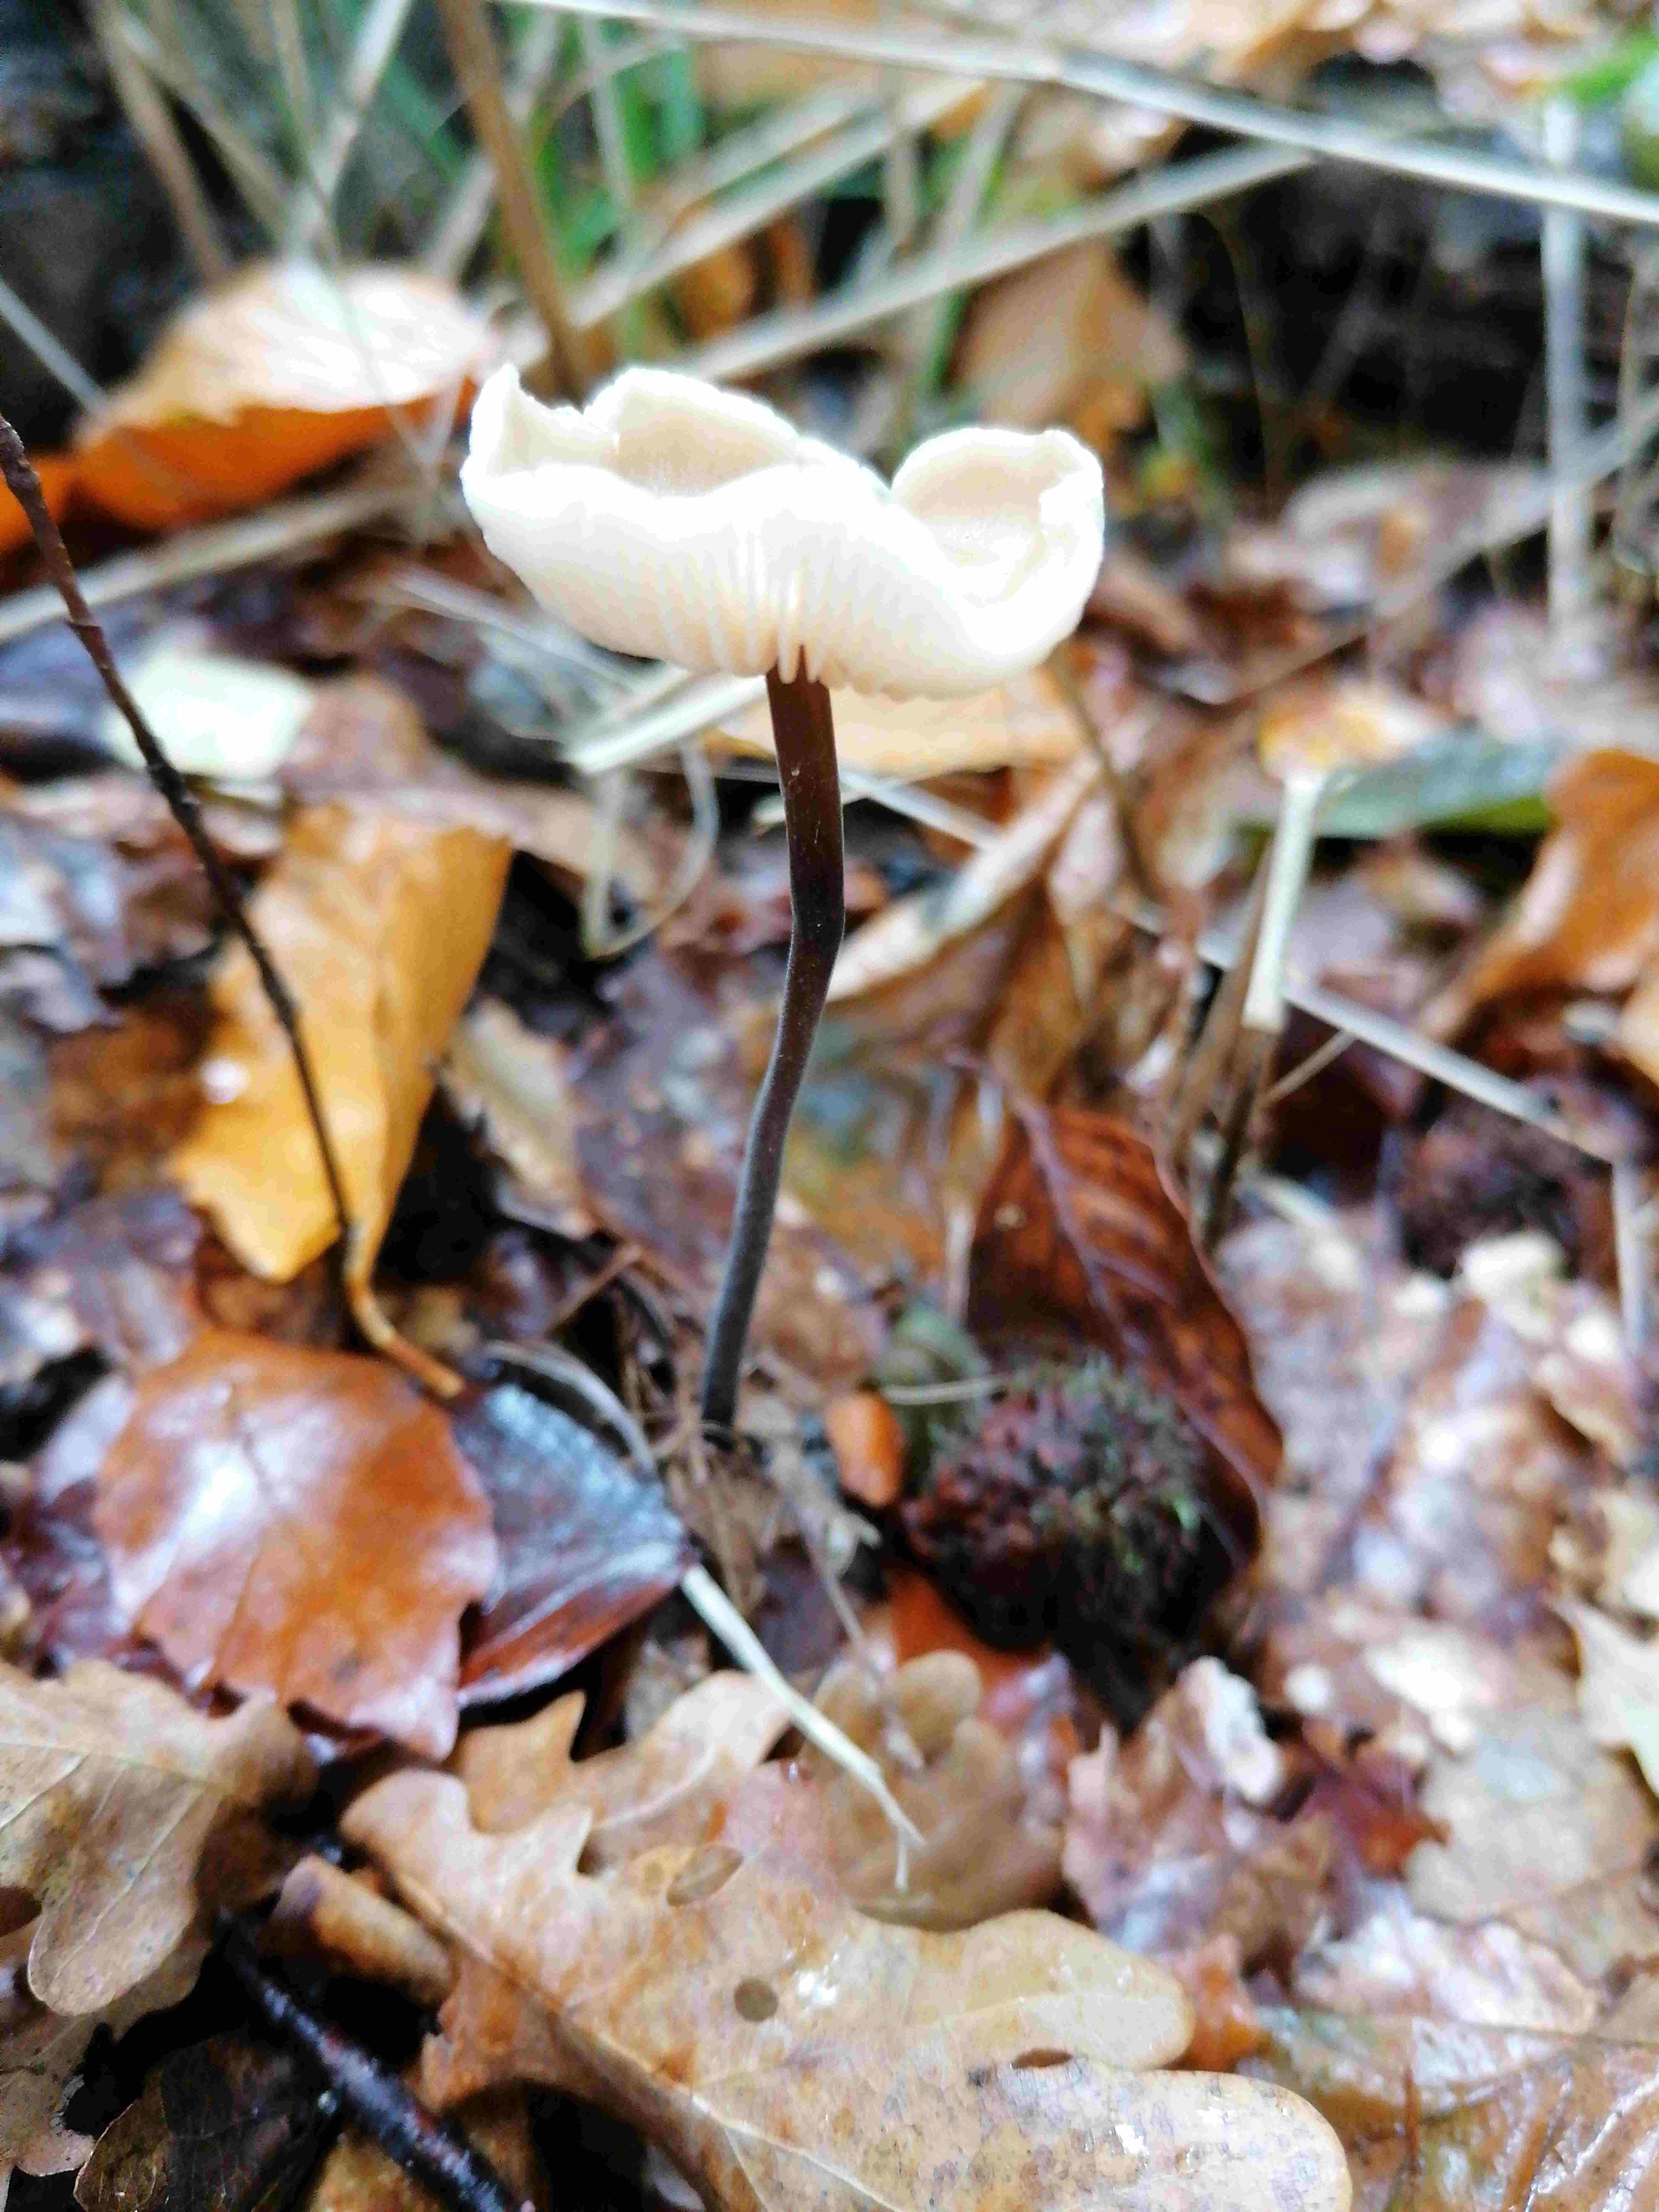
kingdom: Fungi
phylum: Basidiomycota
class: Agaricomycetes
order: Agaricales
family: Omphalotaceae
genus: Mycetinis
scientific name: Mycetinis alliaceus
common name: stor løghat
